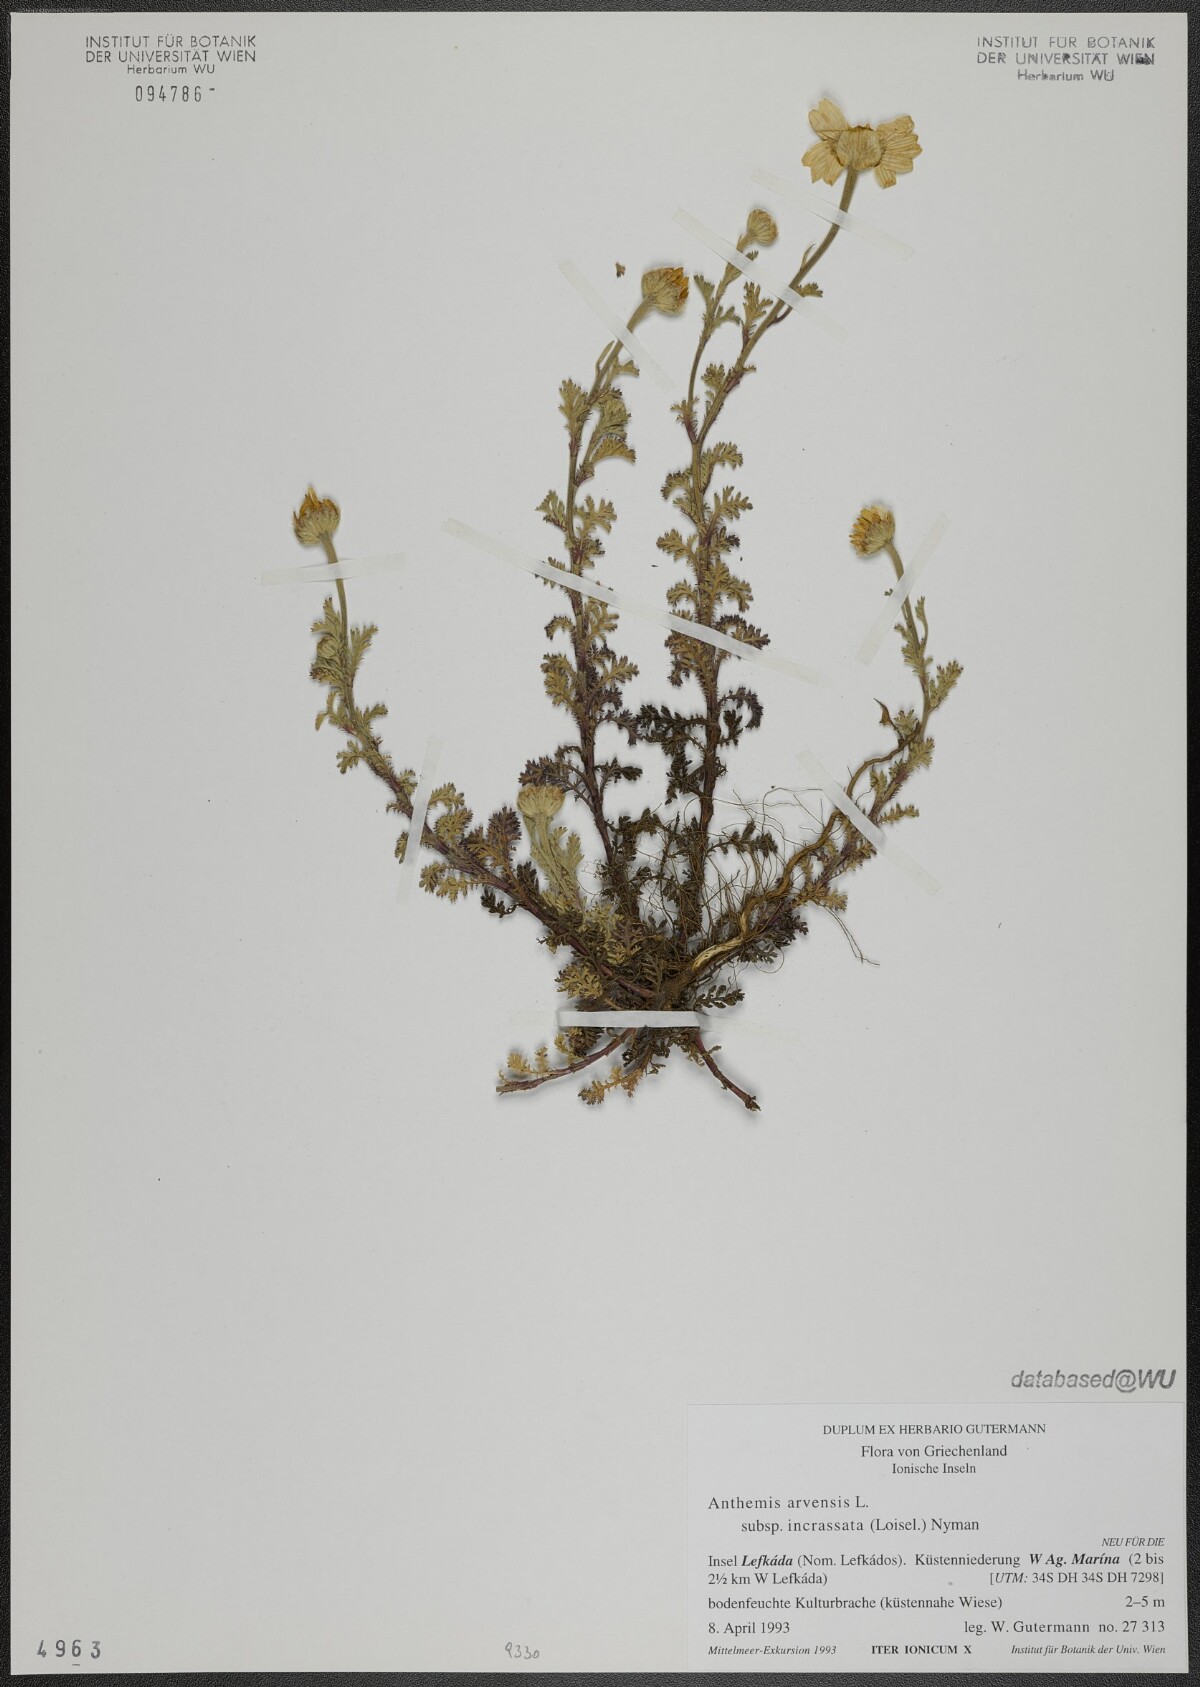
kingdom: Plantae
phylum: Tracheophyta
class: Magnoliopsida
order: Asterales
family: Asteraceae
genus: Anthemis
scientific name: Anthemis arvensis
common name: Corn chamomile
